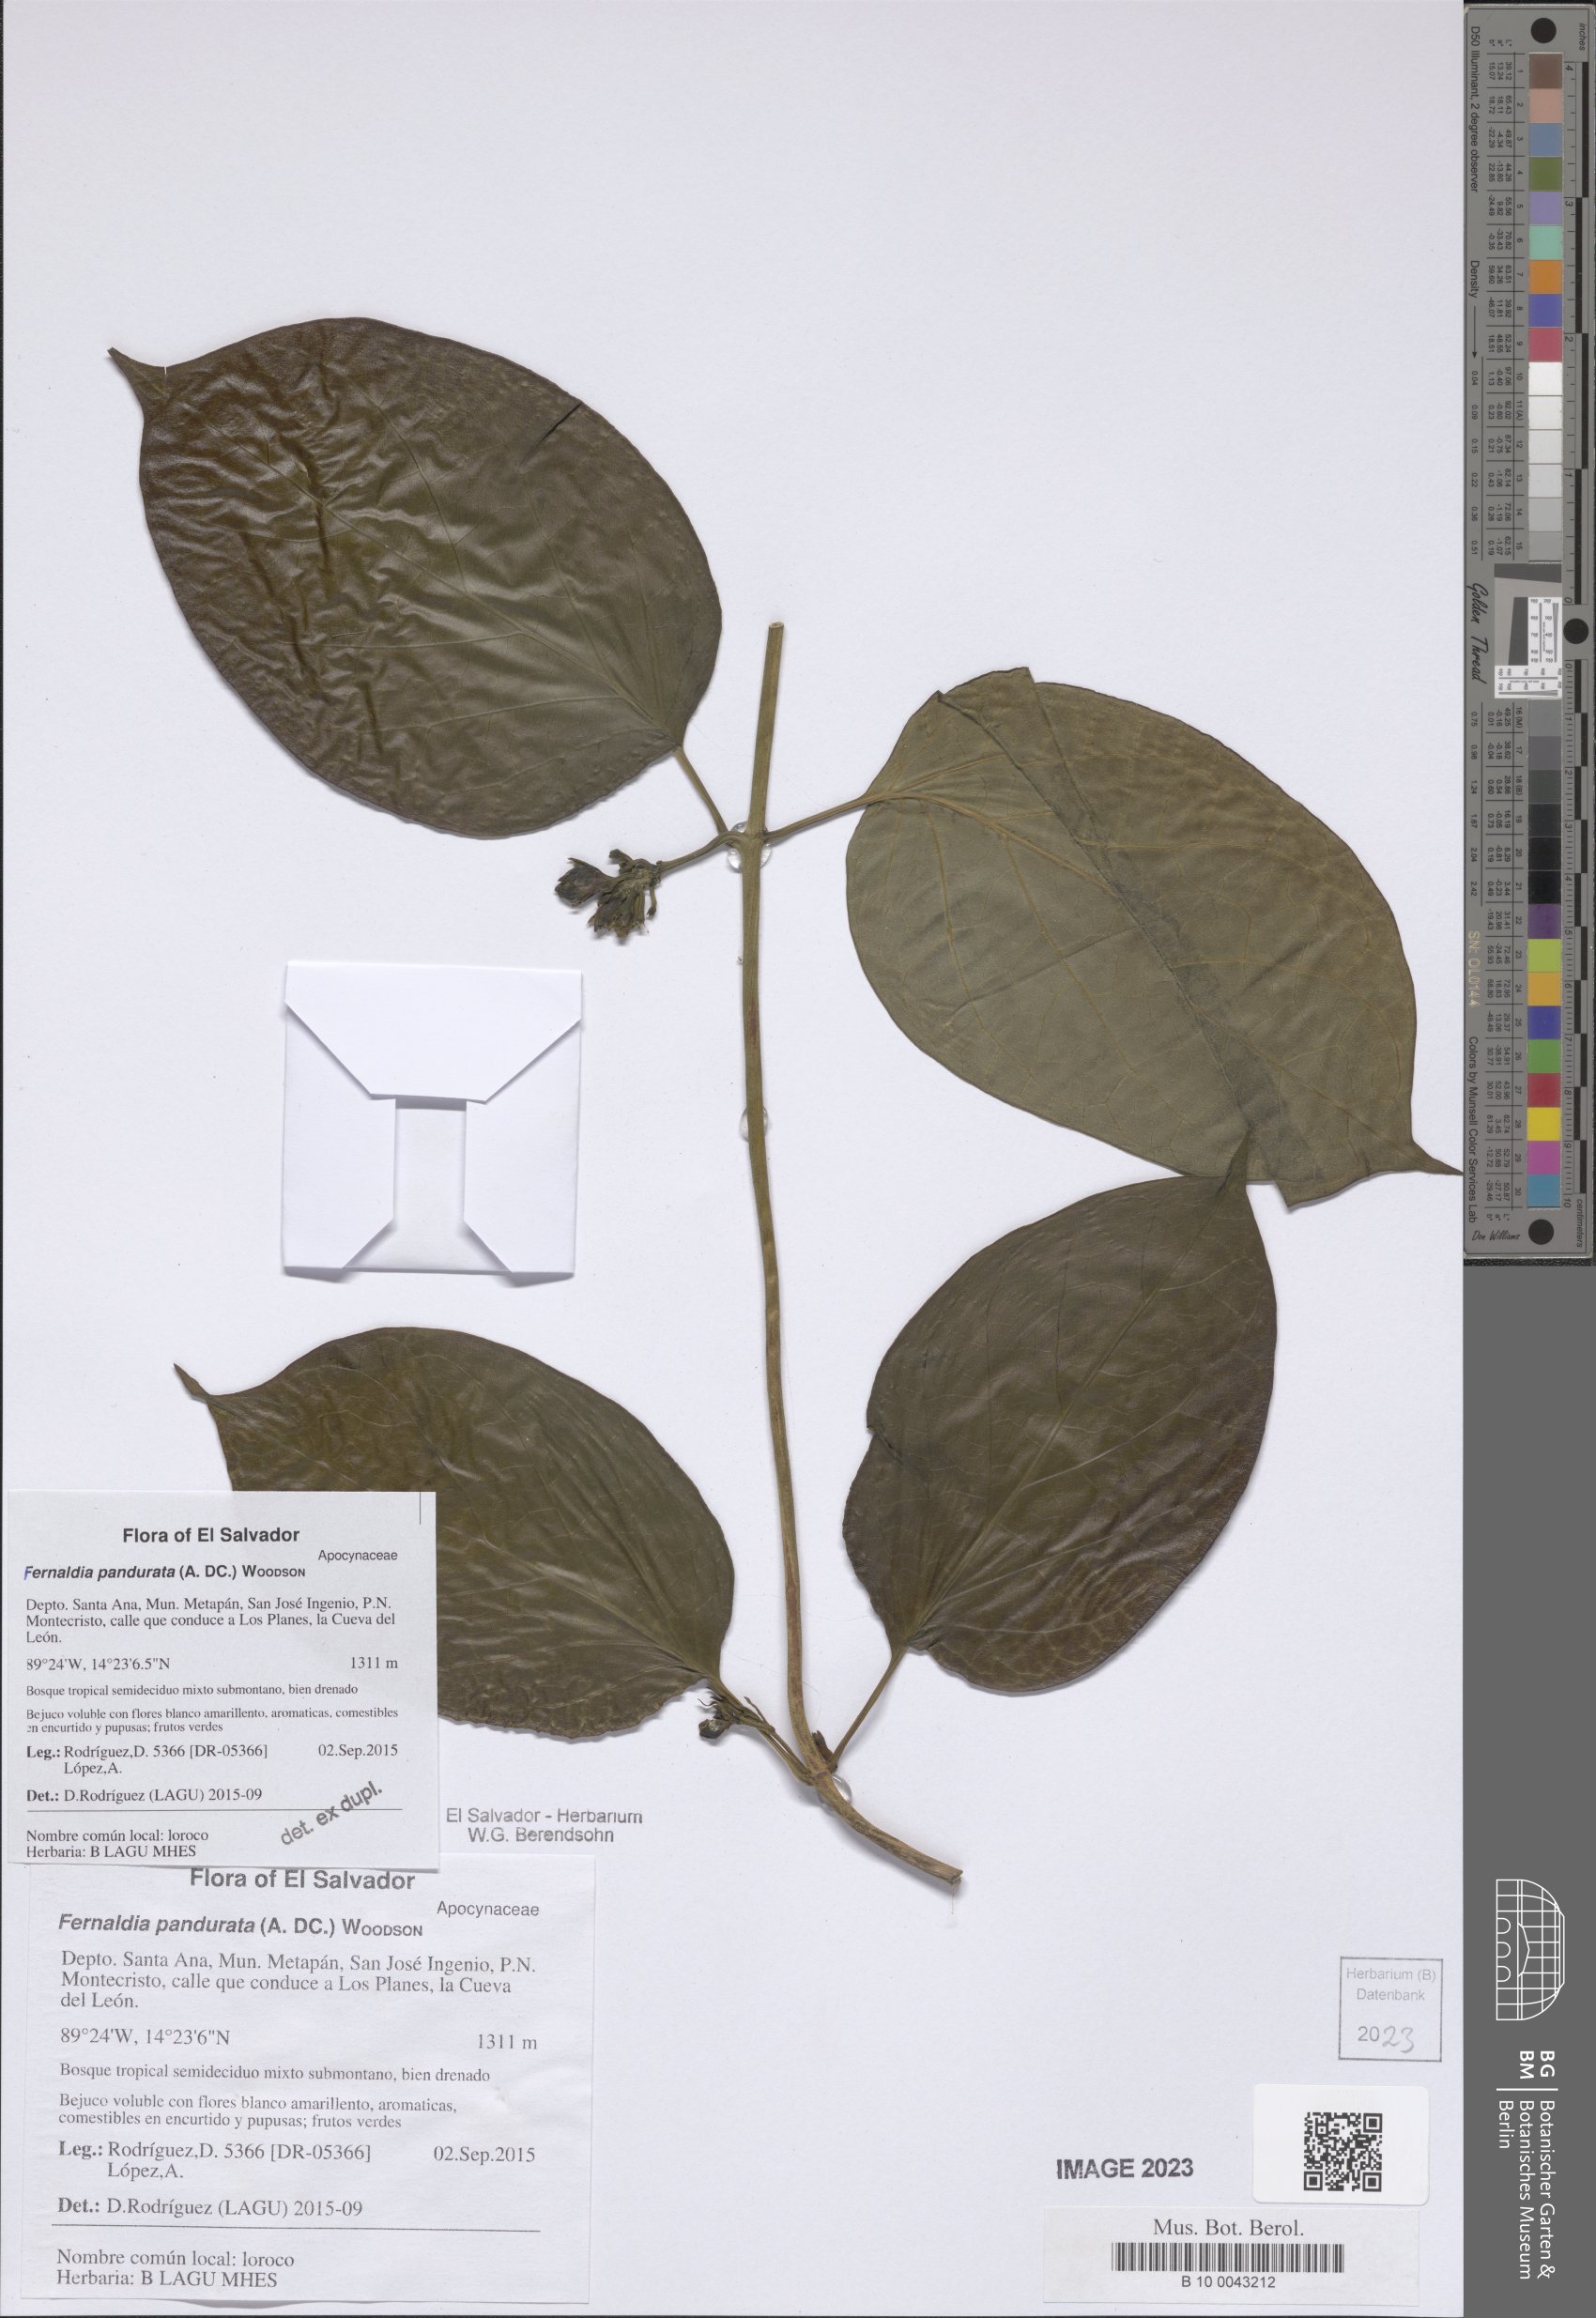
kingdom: Plantae
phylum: Tracheophyta
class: Polypodiopsida
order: Polypodiales
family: Aspleniaceae
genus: Asplenium
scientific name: Asplenium harpeodes
